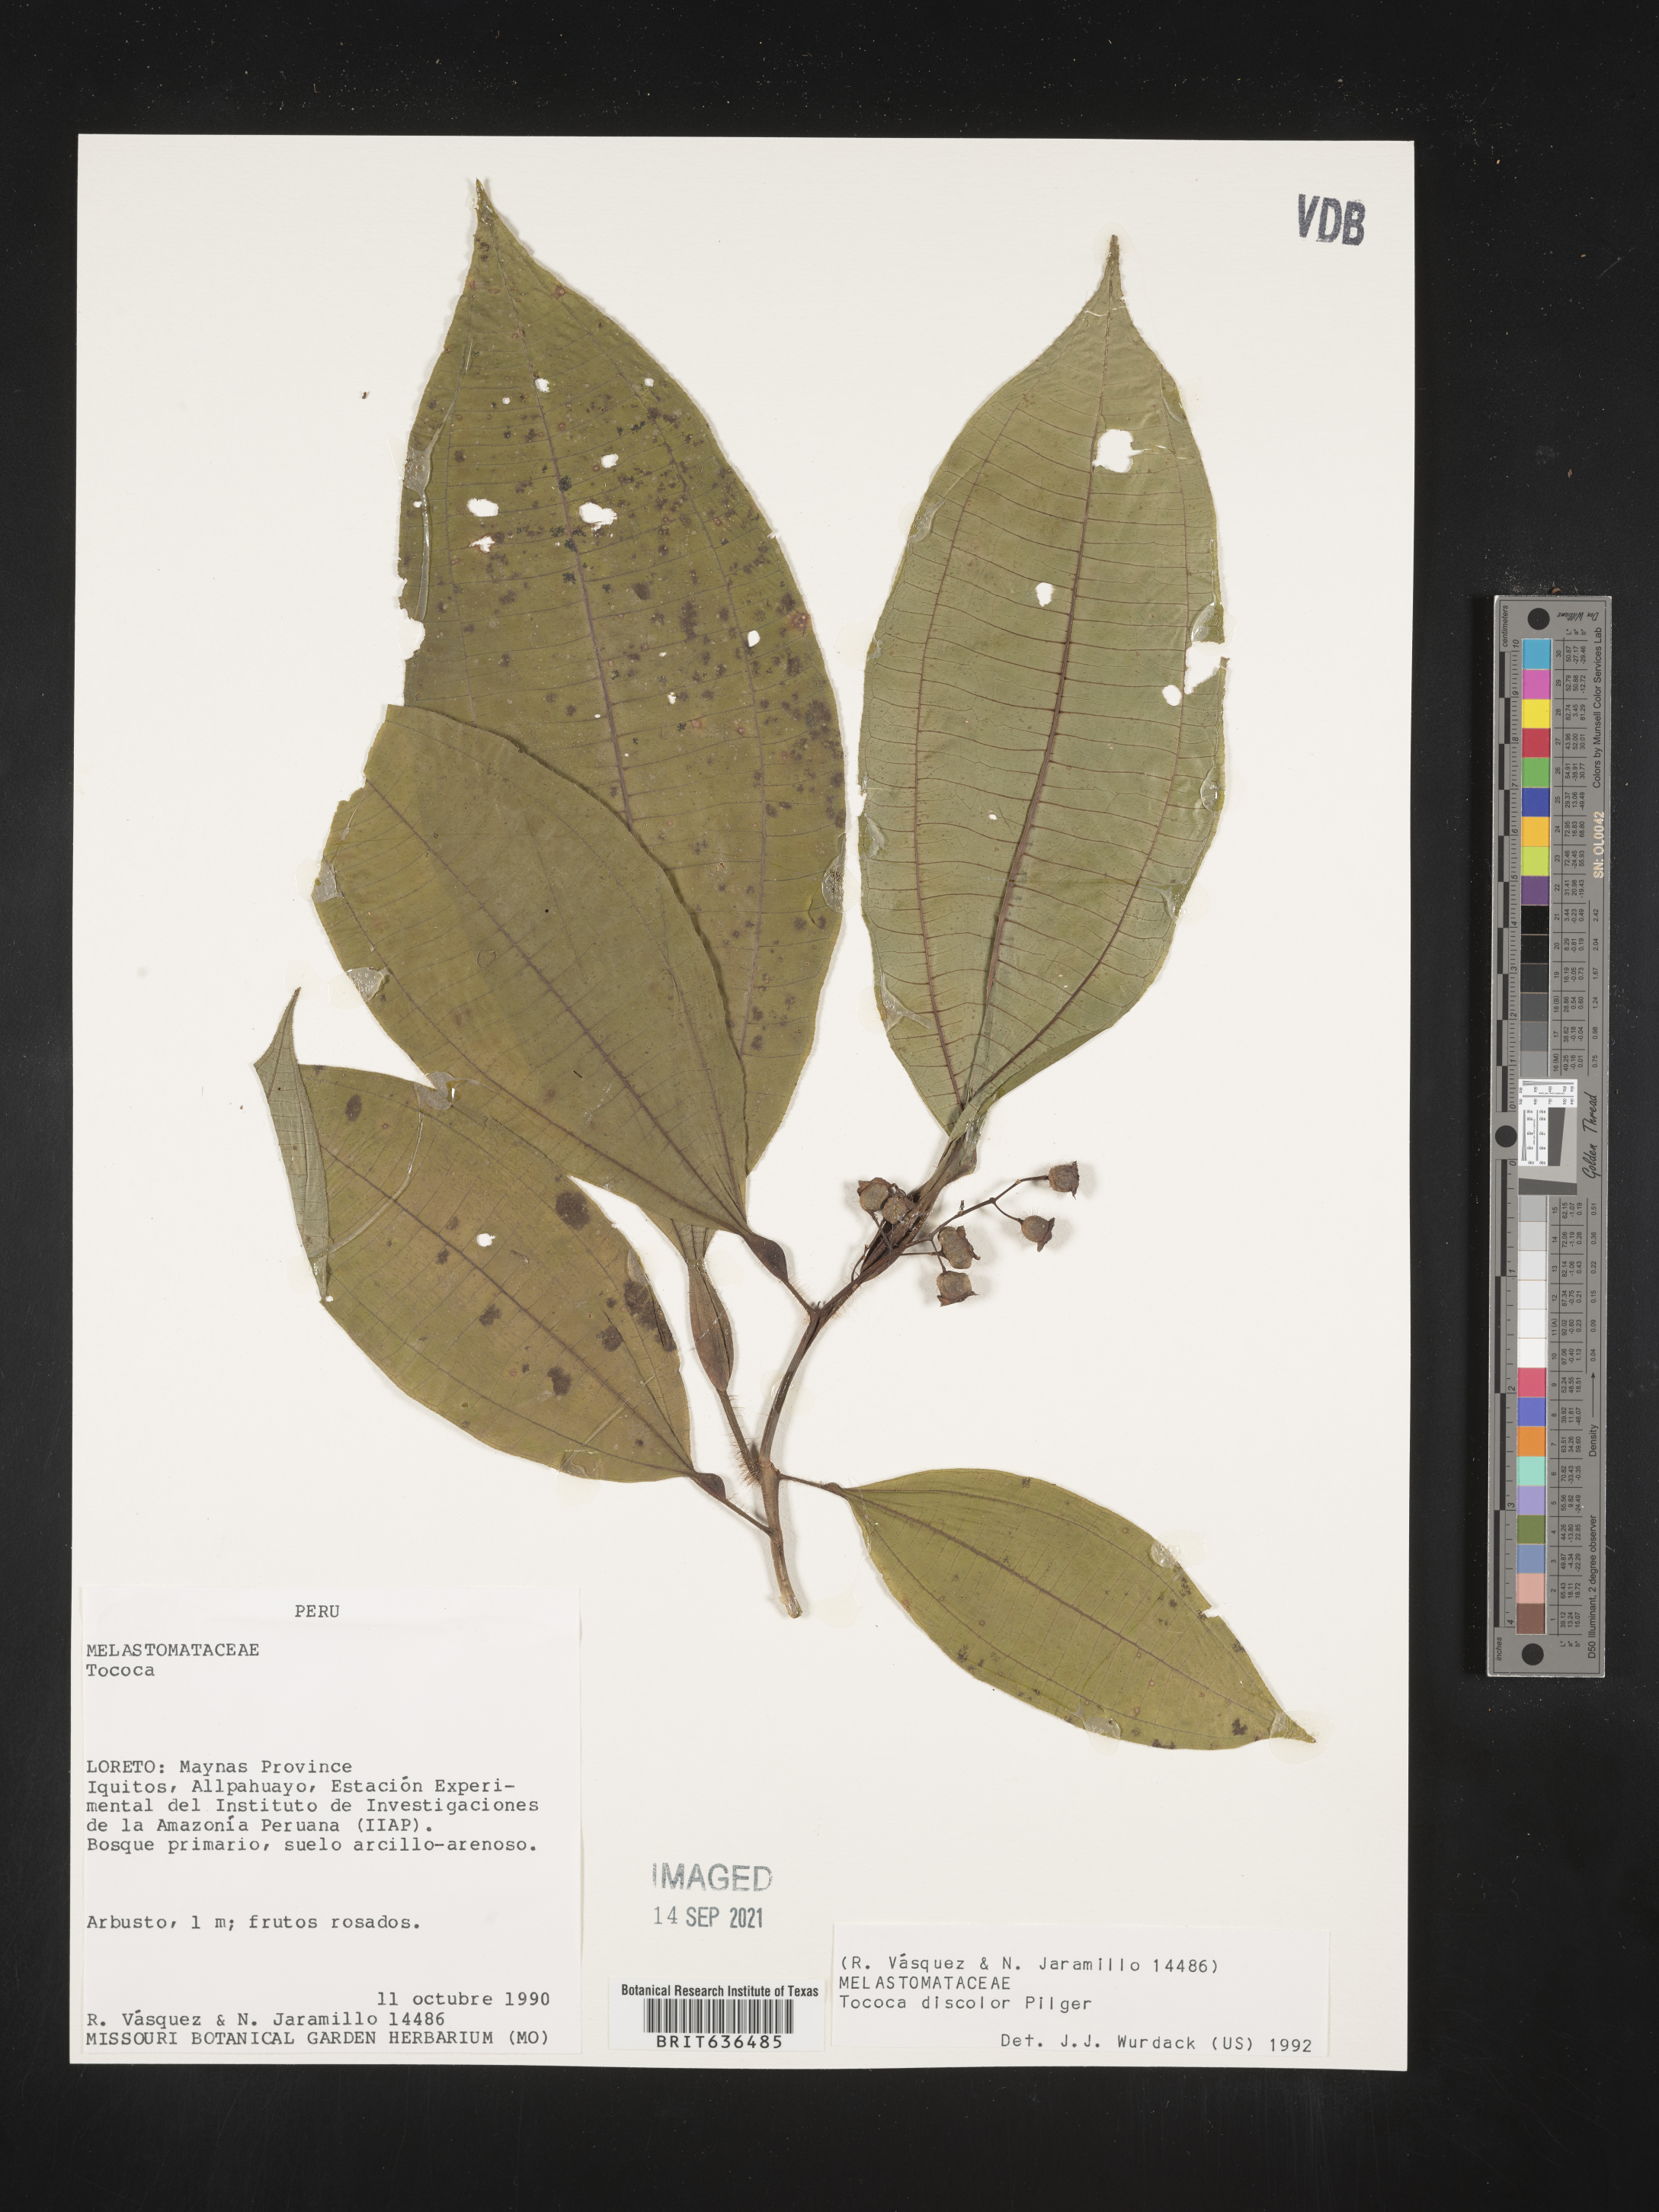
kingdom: Plantae
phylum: Tracheophyta
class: Magnoliopsida
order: Myrtales
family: Melastomataceae
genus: Tibouchina
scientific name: Tibouchina
